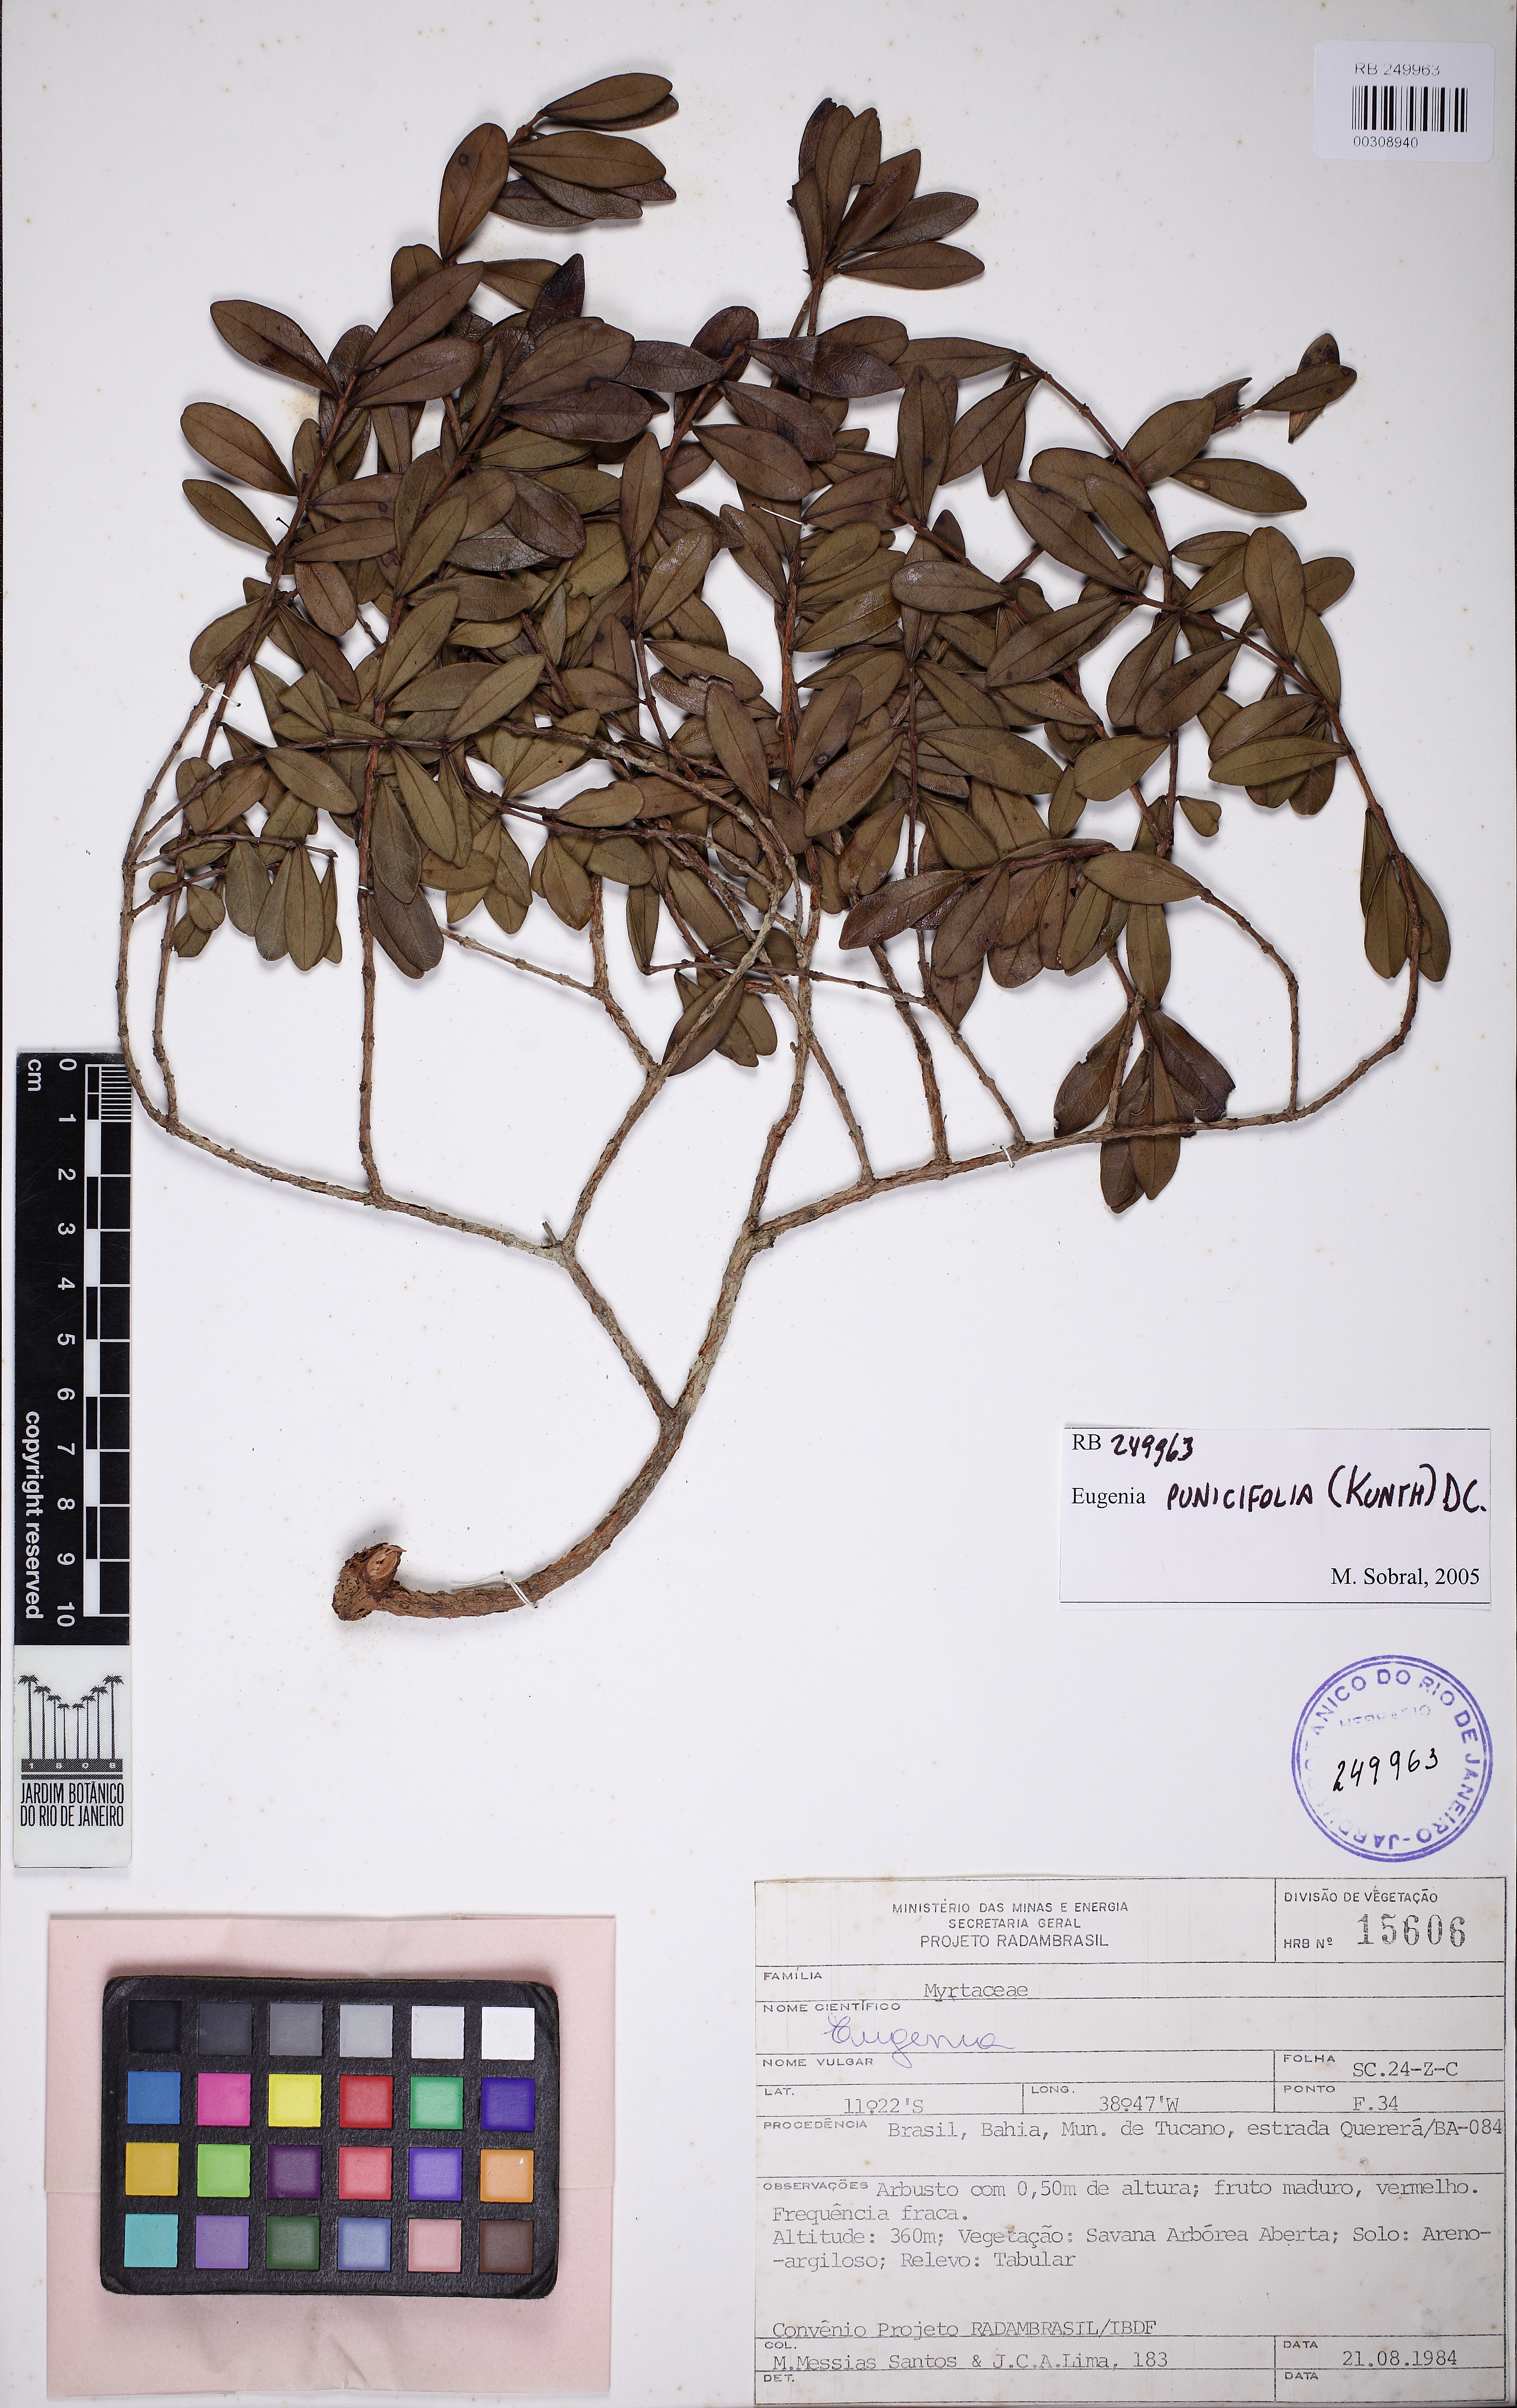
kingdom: Plantae
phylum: Tracheophyta
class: Magnoliopsida
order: Myrtales
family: Myrtaceae
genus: Eugenia
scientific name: Eugenia punicifolia
